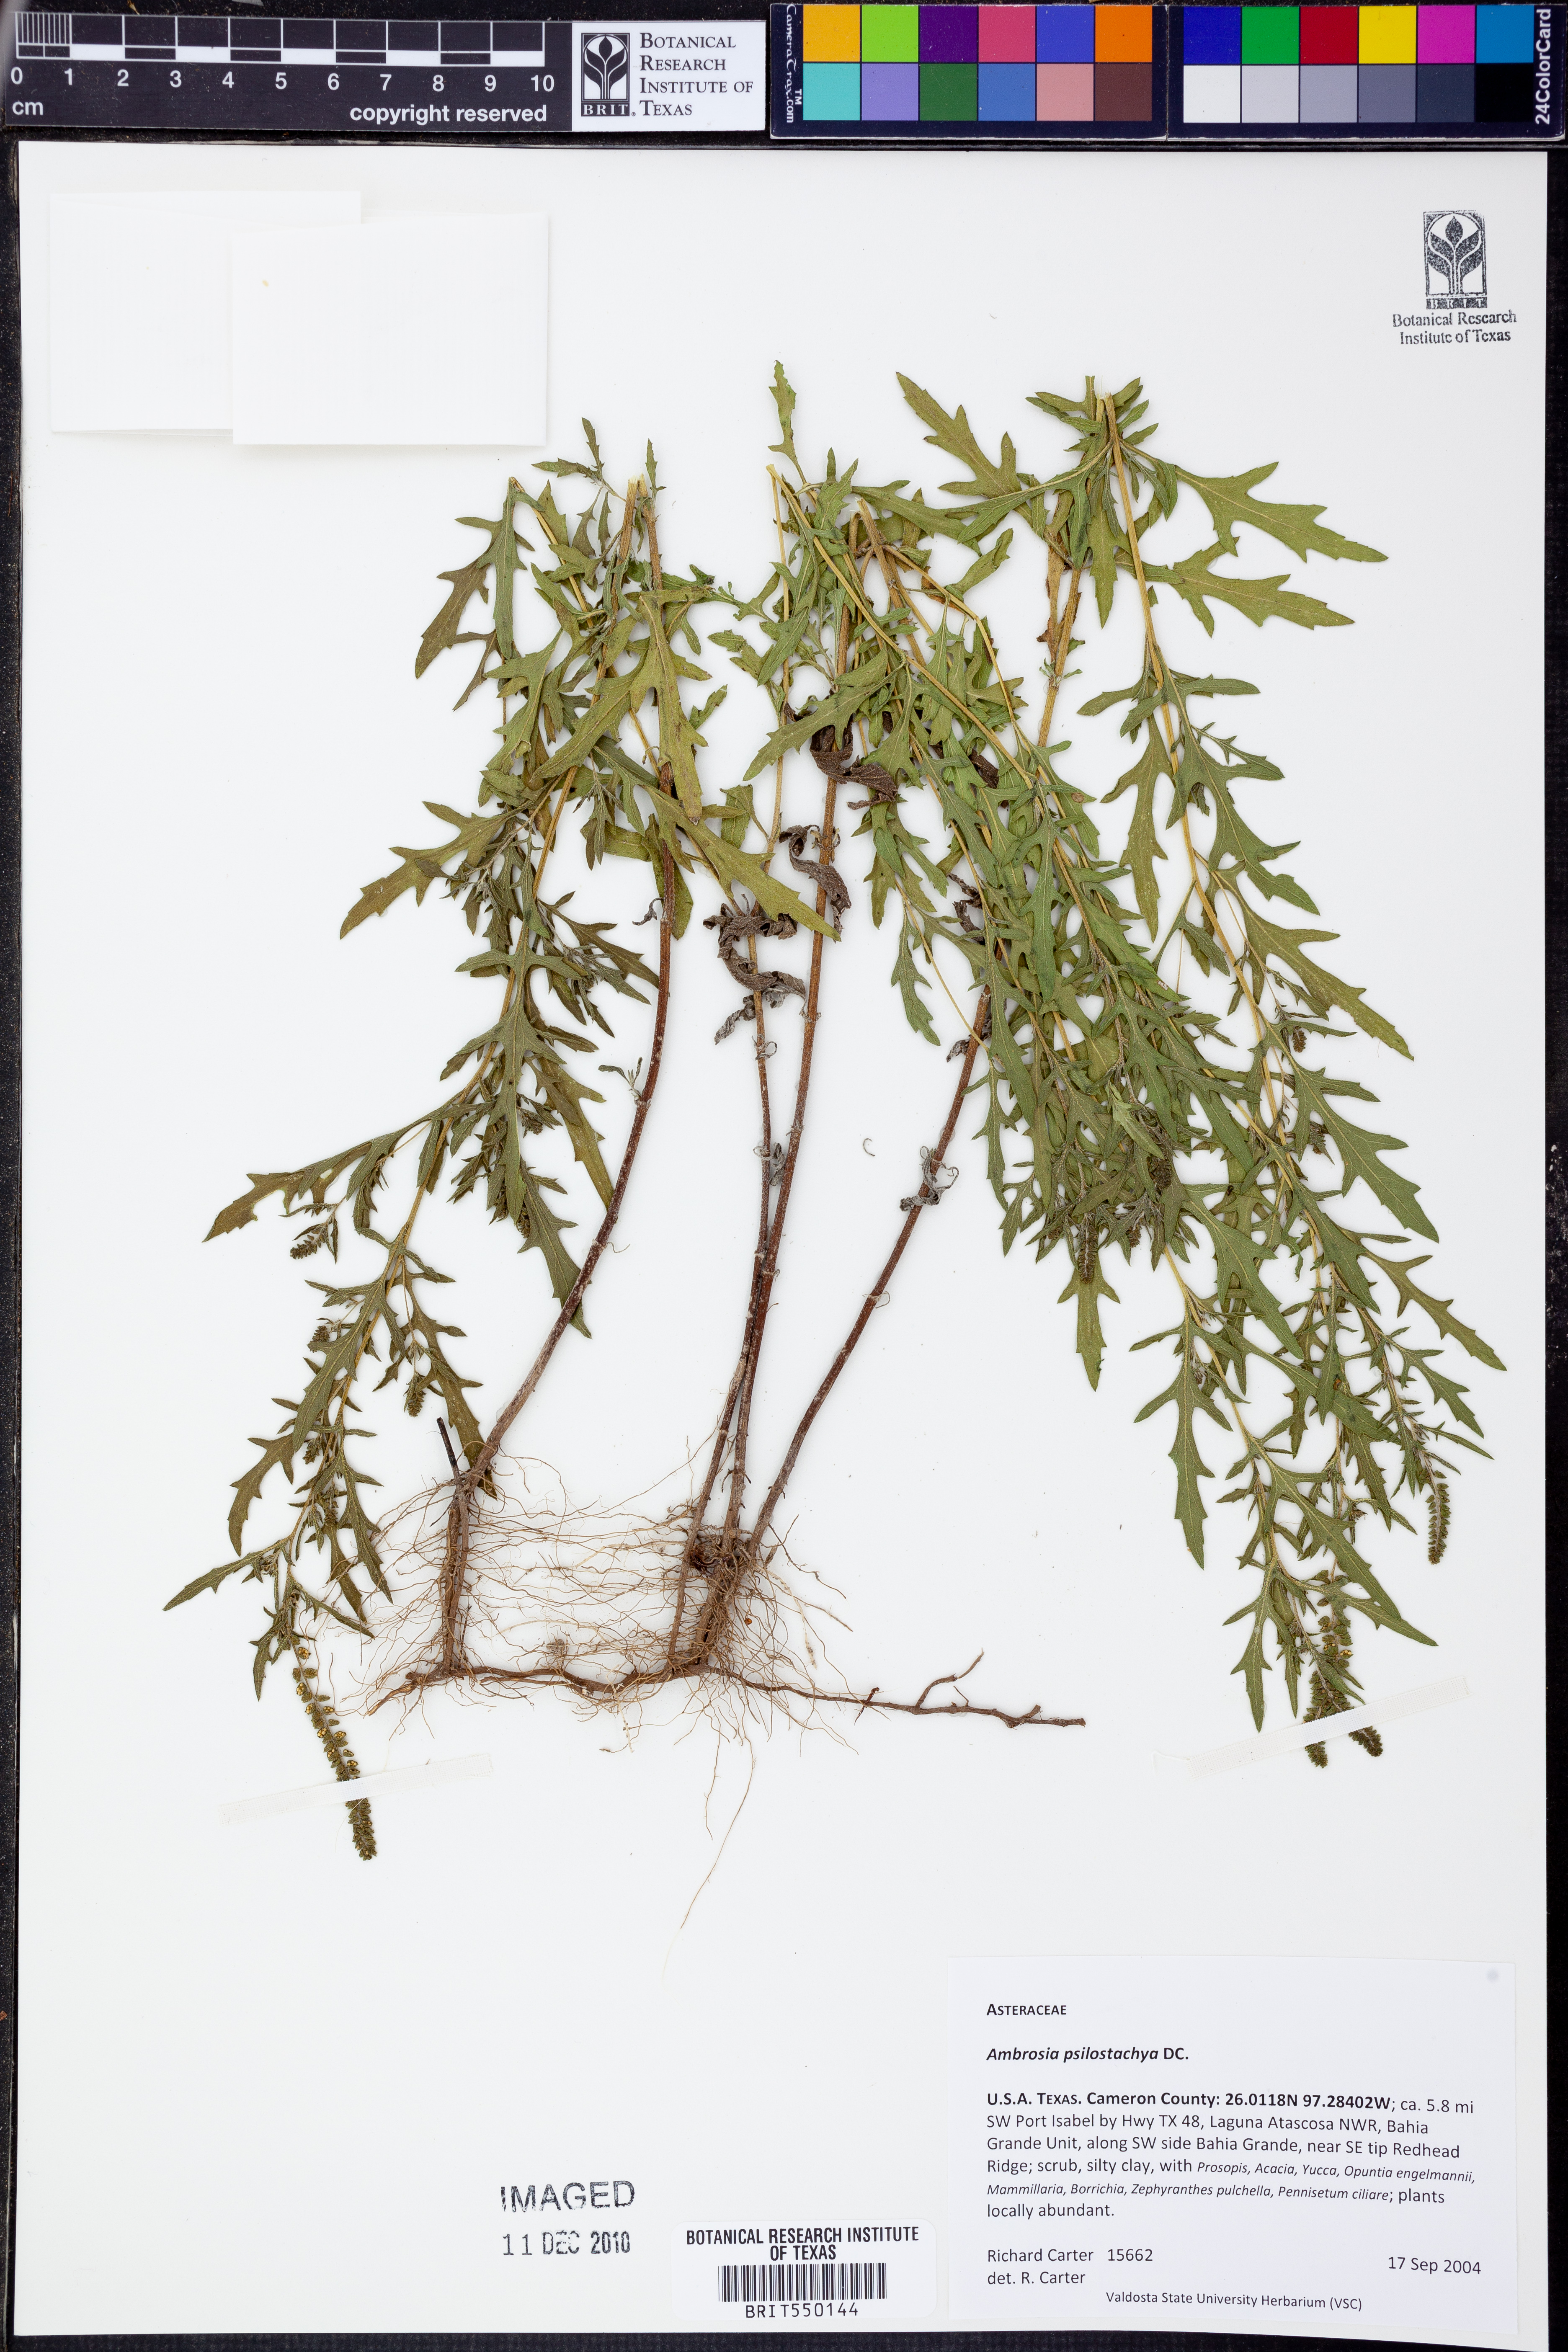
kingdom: Plantae
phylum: Tracheophyta
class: Magnoliopsida
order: Asterales
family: Asteraceae
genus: Ambrosia
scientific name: Ambrosia psilostachya
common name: Perennial ragweed
